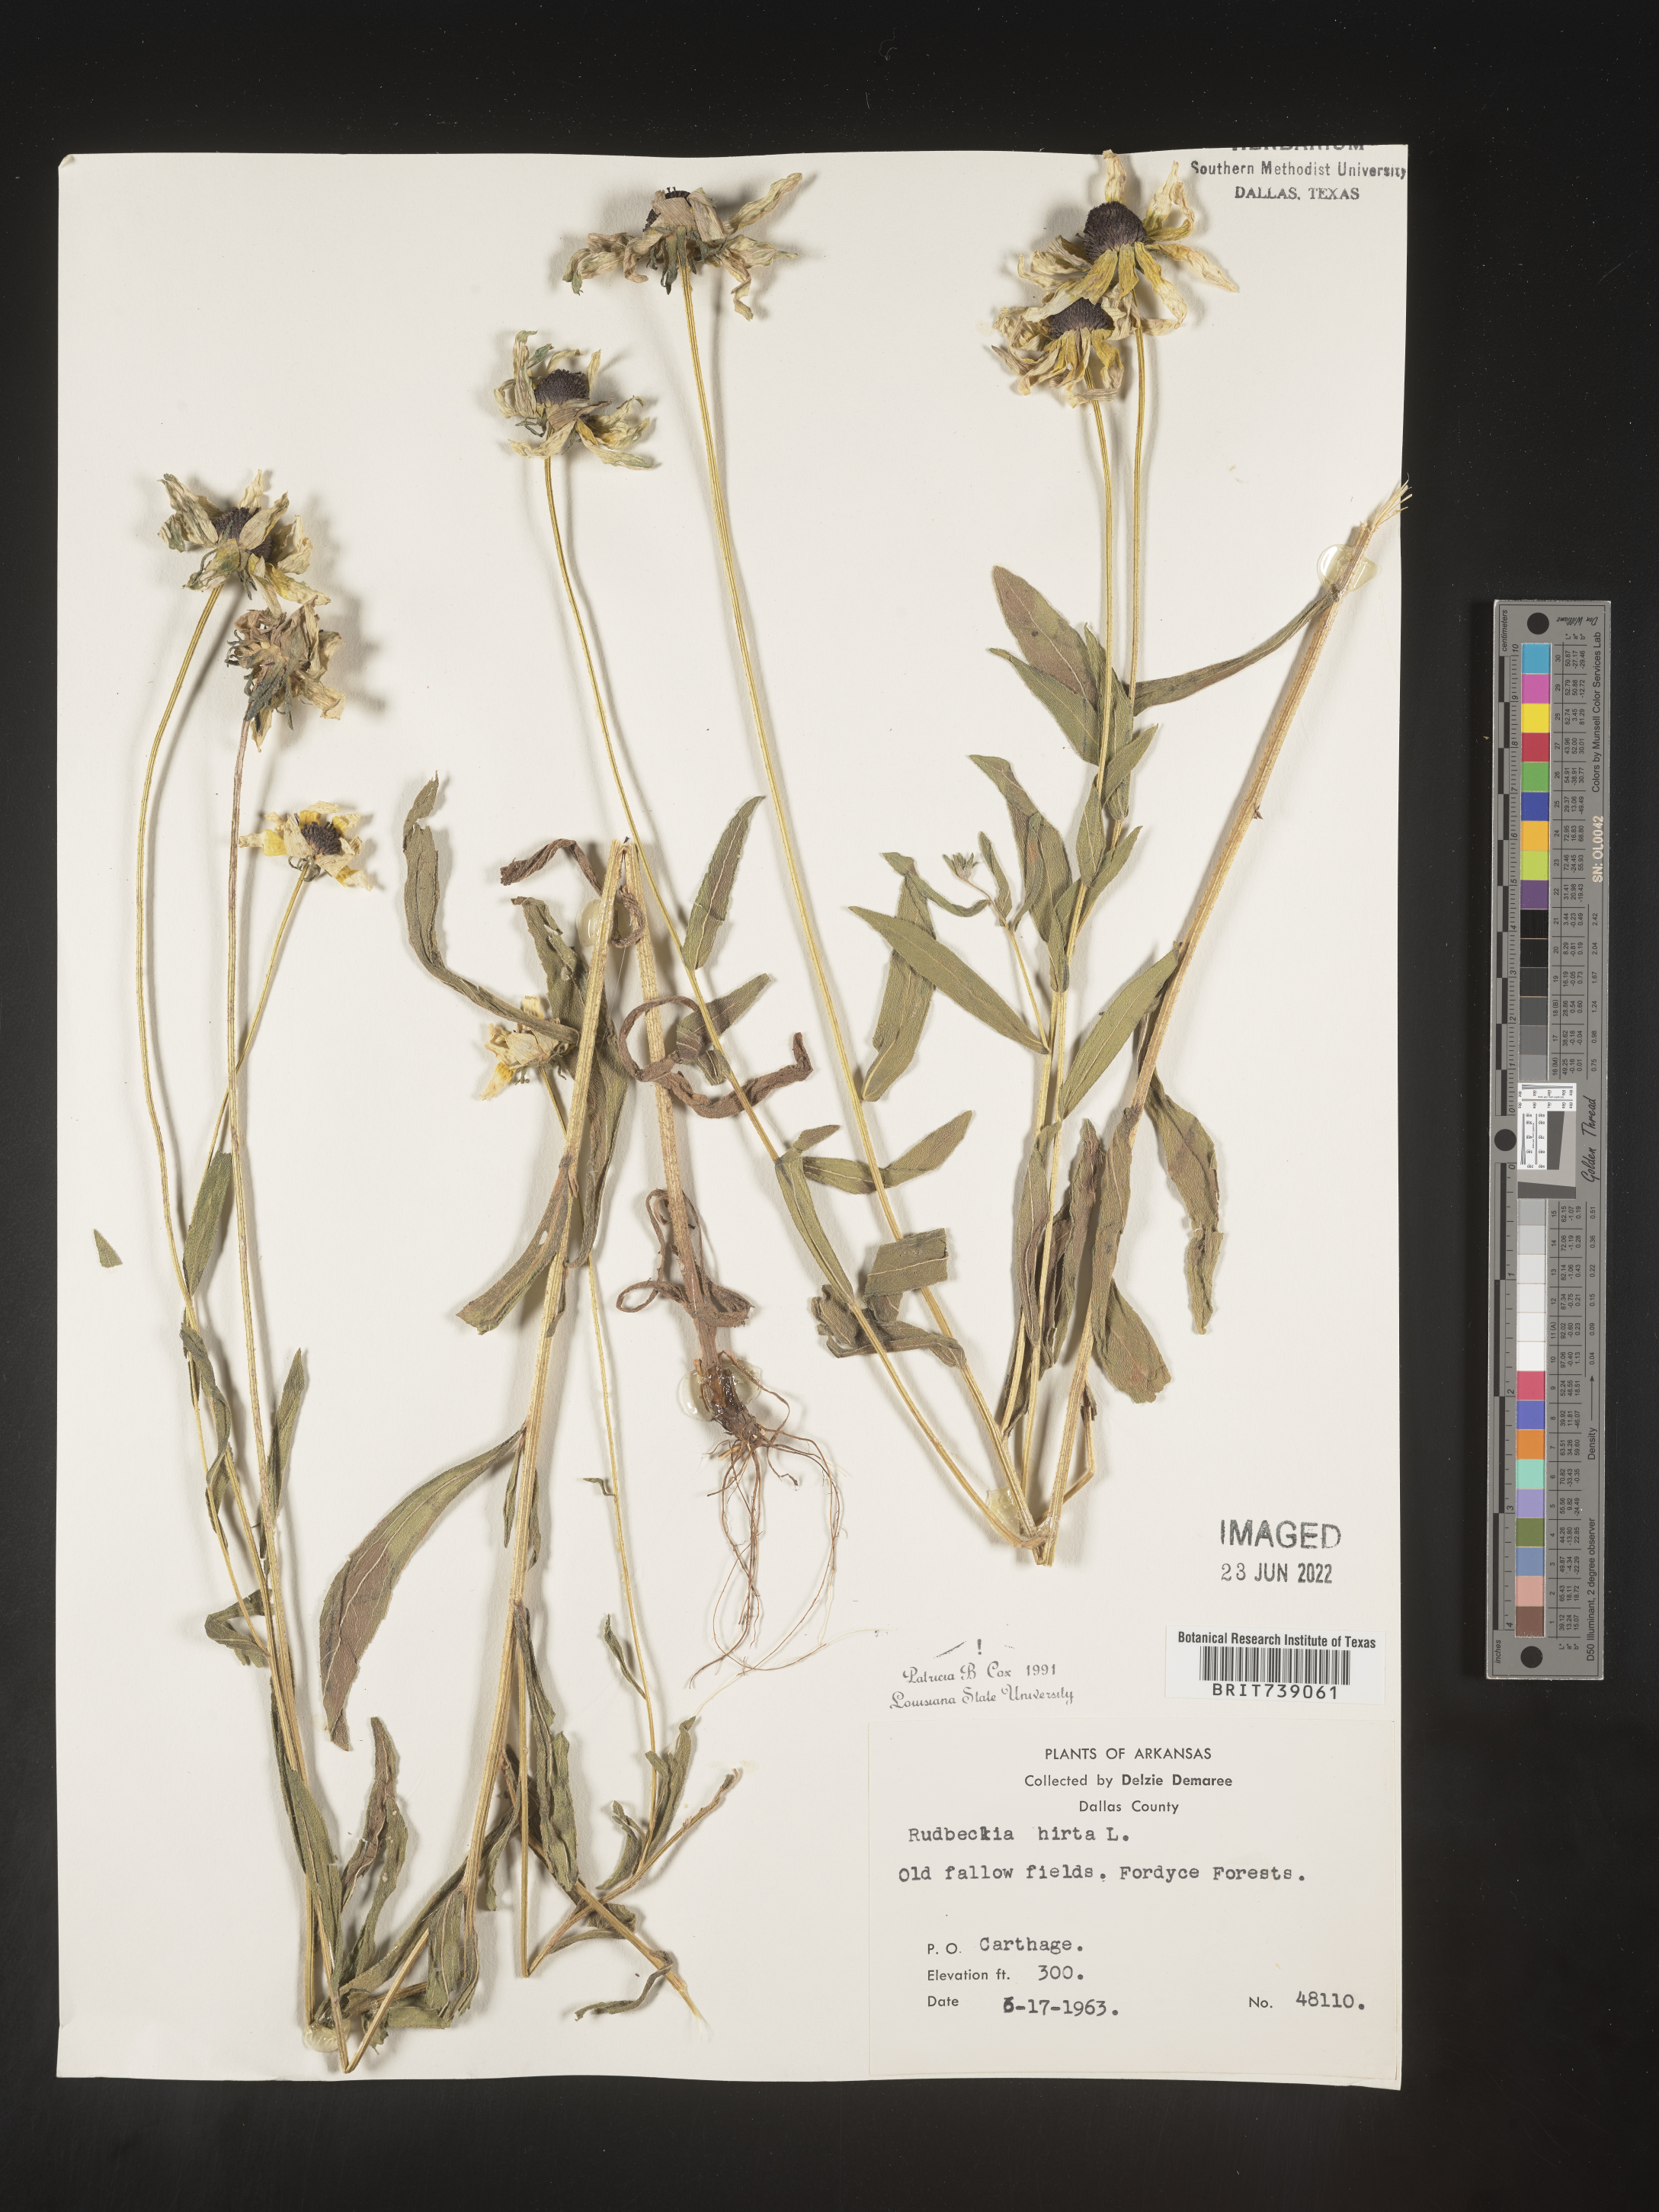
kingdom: Plantae
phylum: Tracheophyta
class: Magnoliopsida
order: Asterales
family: Asteraceae
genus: Rudbeckia
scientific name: Rudbeckia hirta
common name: Black-eyed-susan
